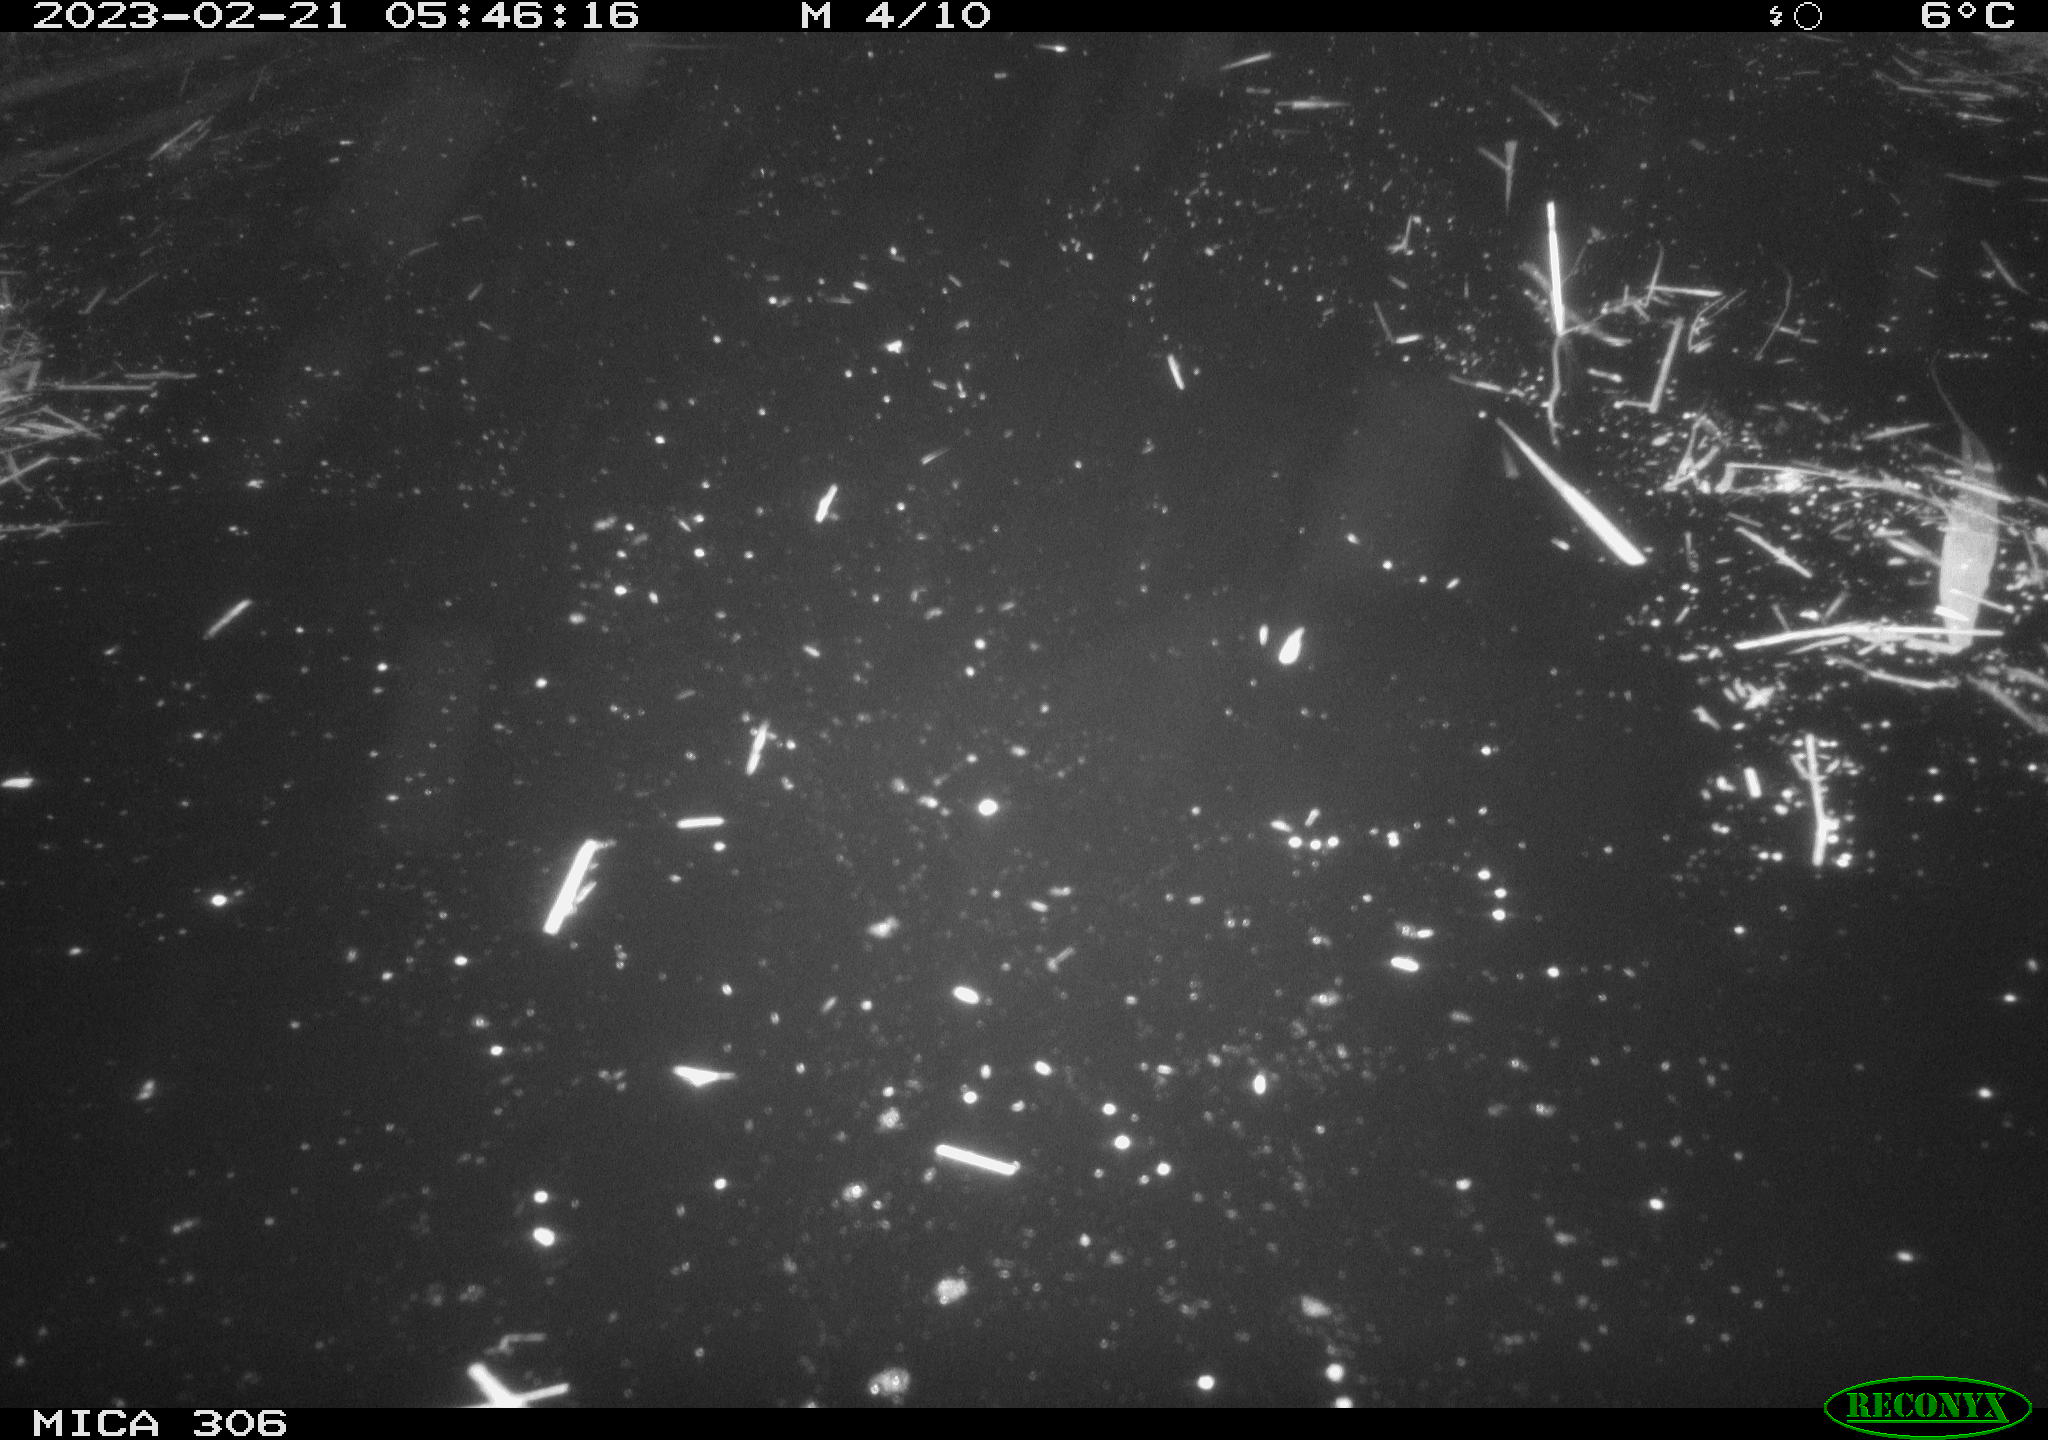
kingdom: Animalia
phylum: Chordata
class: Mammalia
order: Rodentia
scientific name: Rodentia
